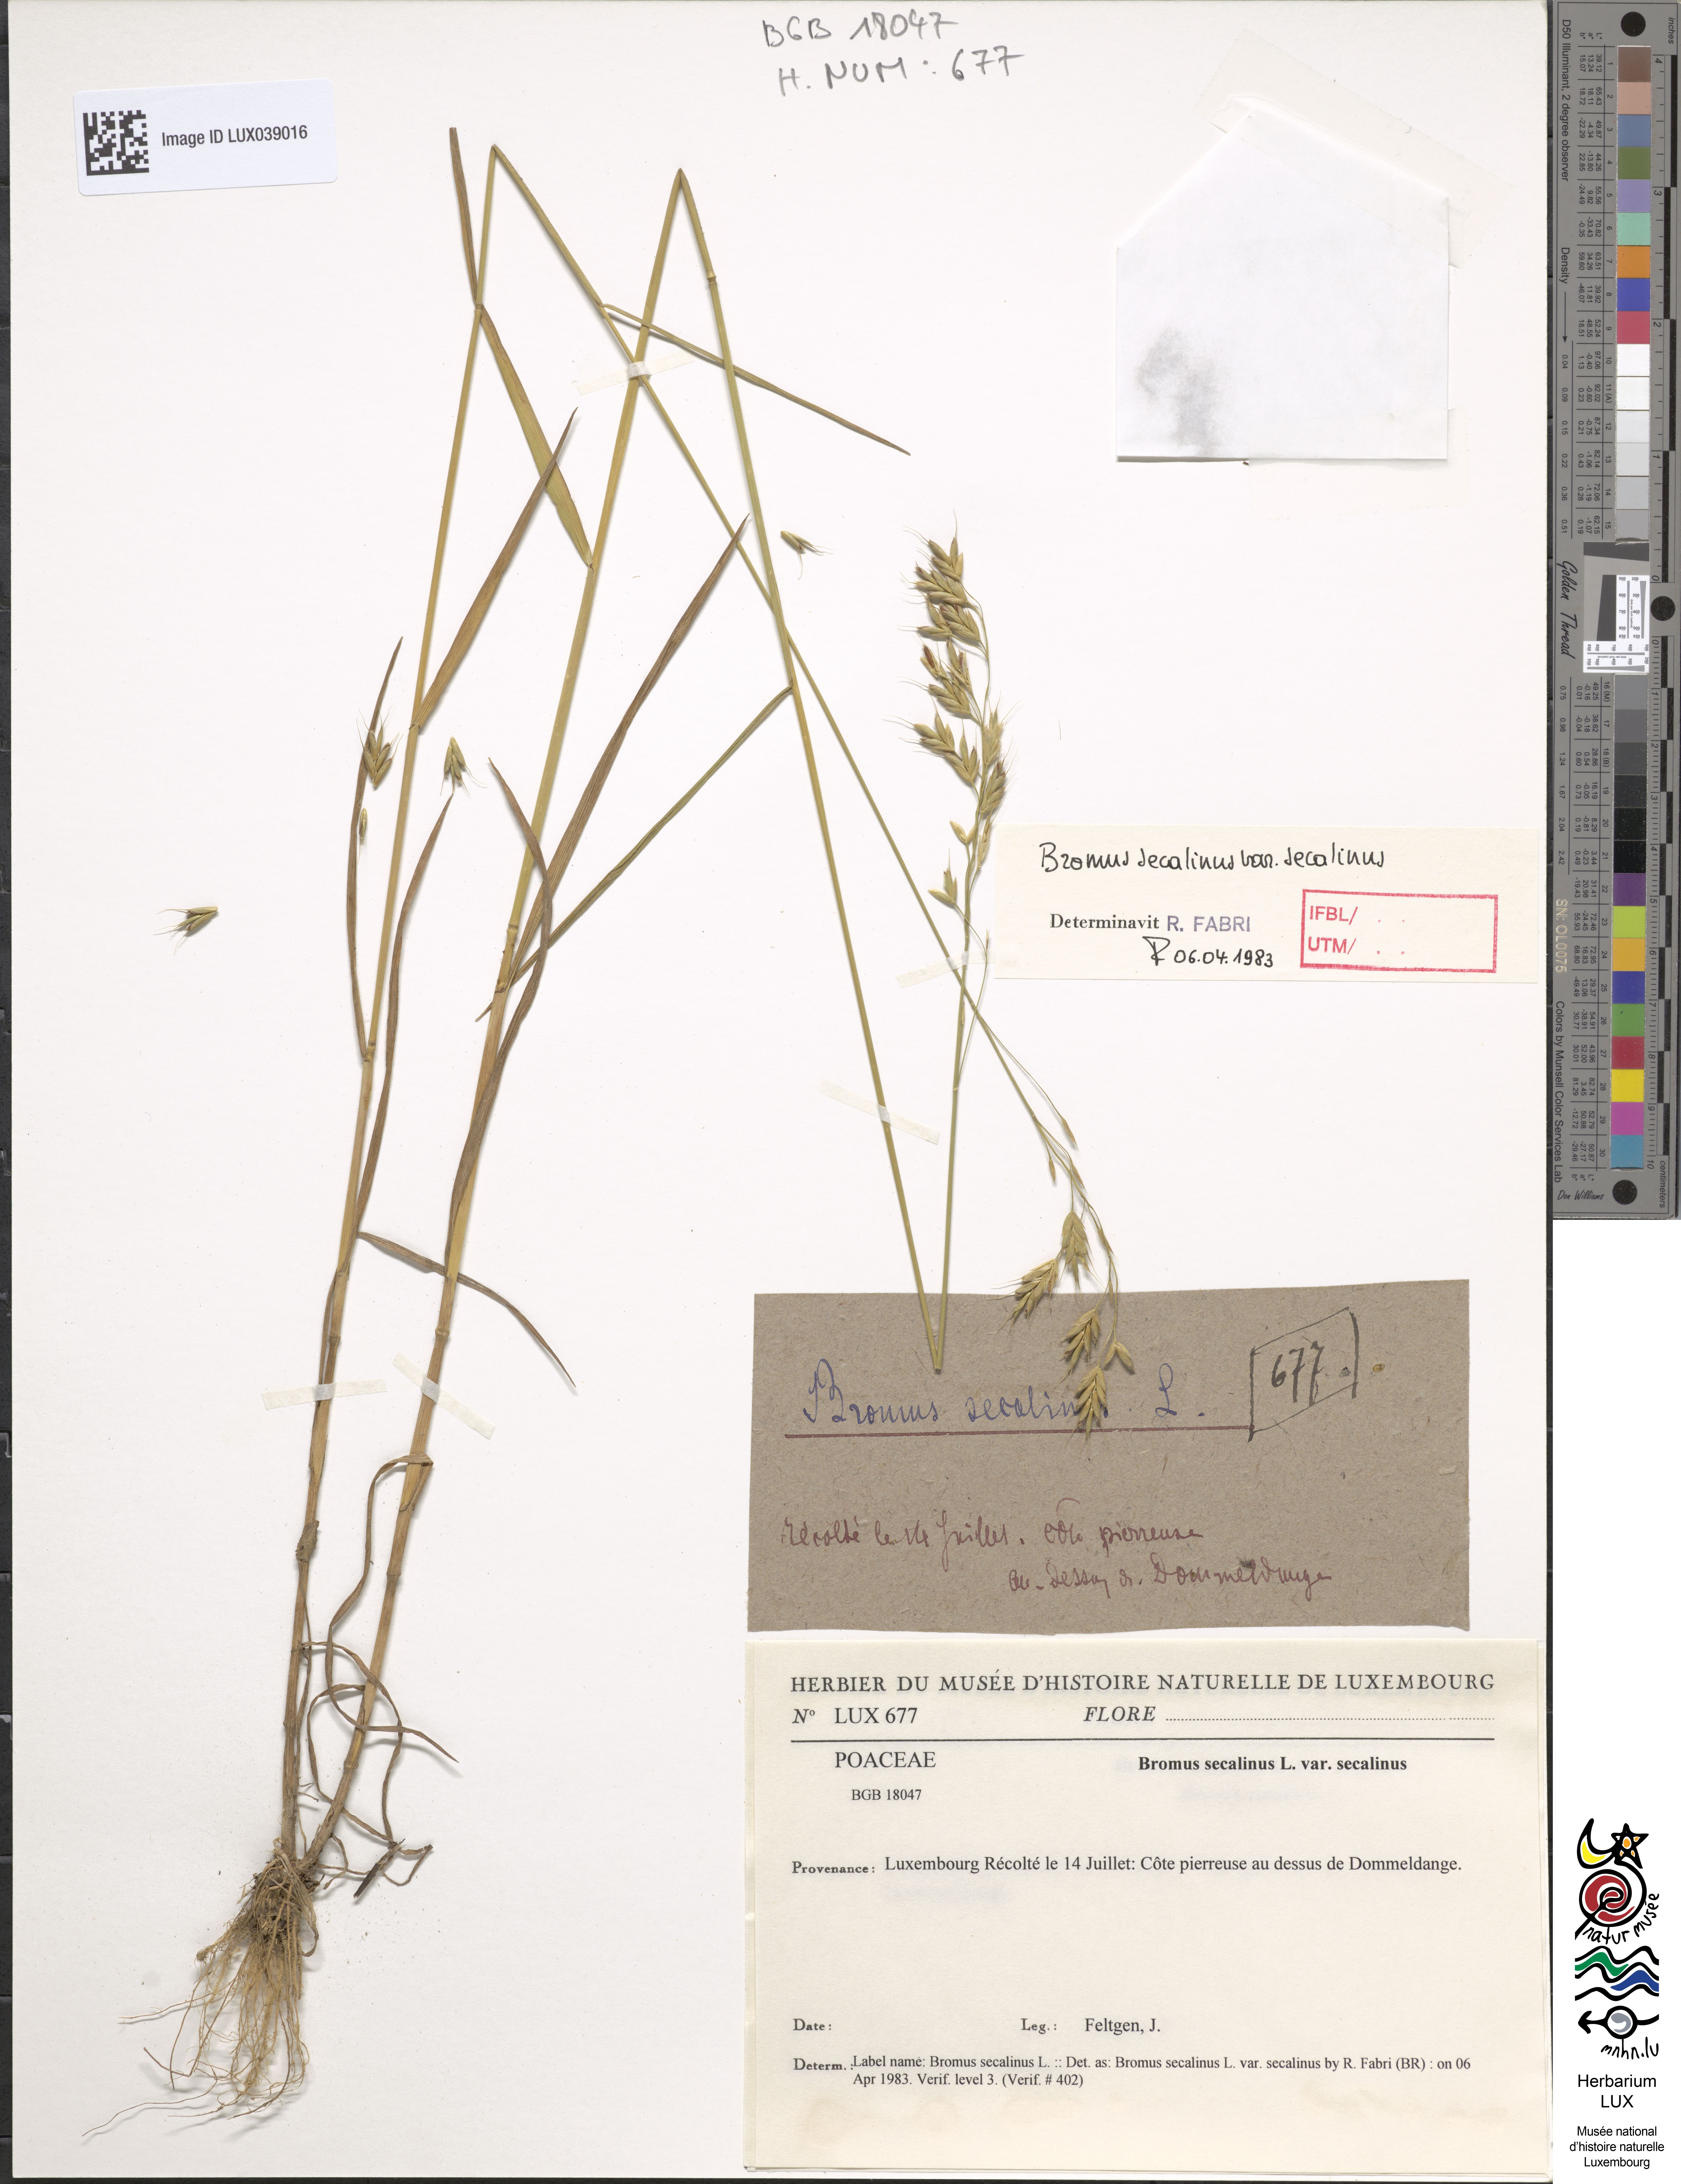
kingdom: Plantae
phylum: Tracheophyta
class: Liliopsida
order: Poales
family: Poaceae
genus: Bromus
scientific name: Bromus secalinus
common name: Rye brome
